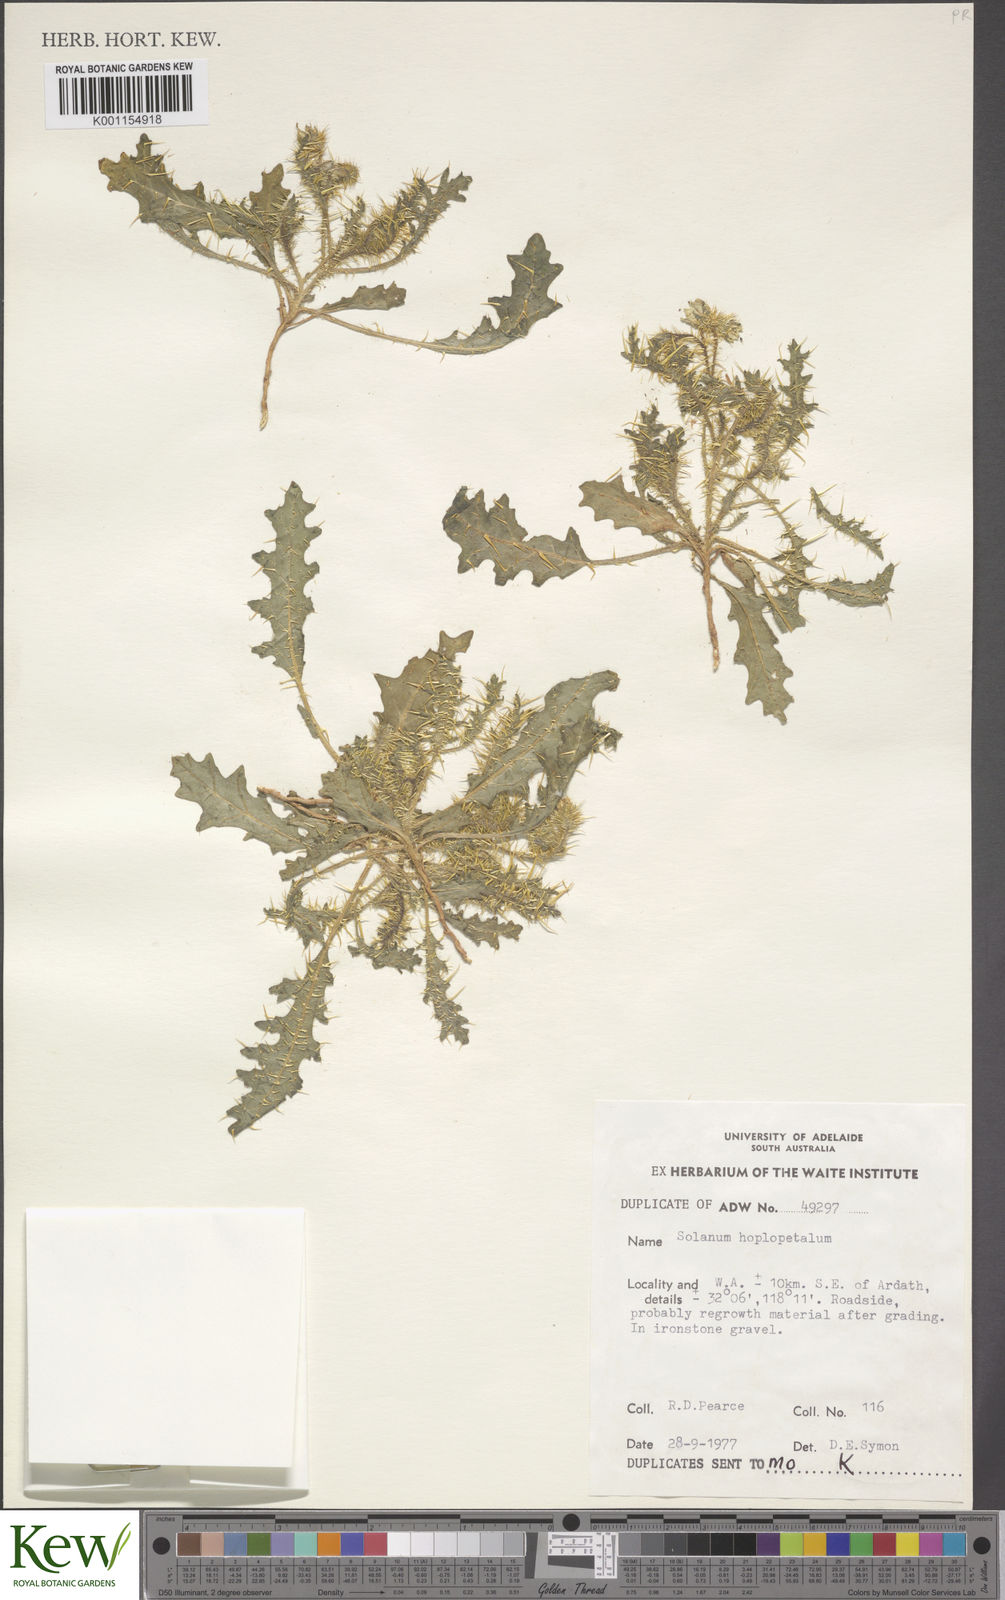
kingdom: Plantae
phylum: Tracheophyta
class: Magnoliopsida
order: Solanales
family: Solanaceae
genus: Solanum
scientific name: Solanum hoplopetalum
